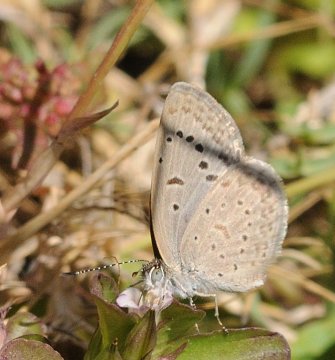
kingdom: Animalia
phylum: Arthropoda
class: Insecta
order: Lepidoptera
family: Lycaenidae
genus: Zizeeria
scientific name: Zizeeria knysna
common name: Dark Grass Blue
